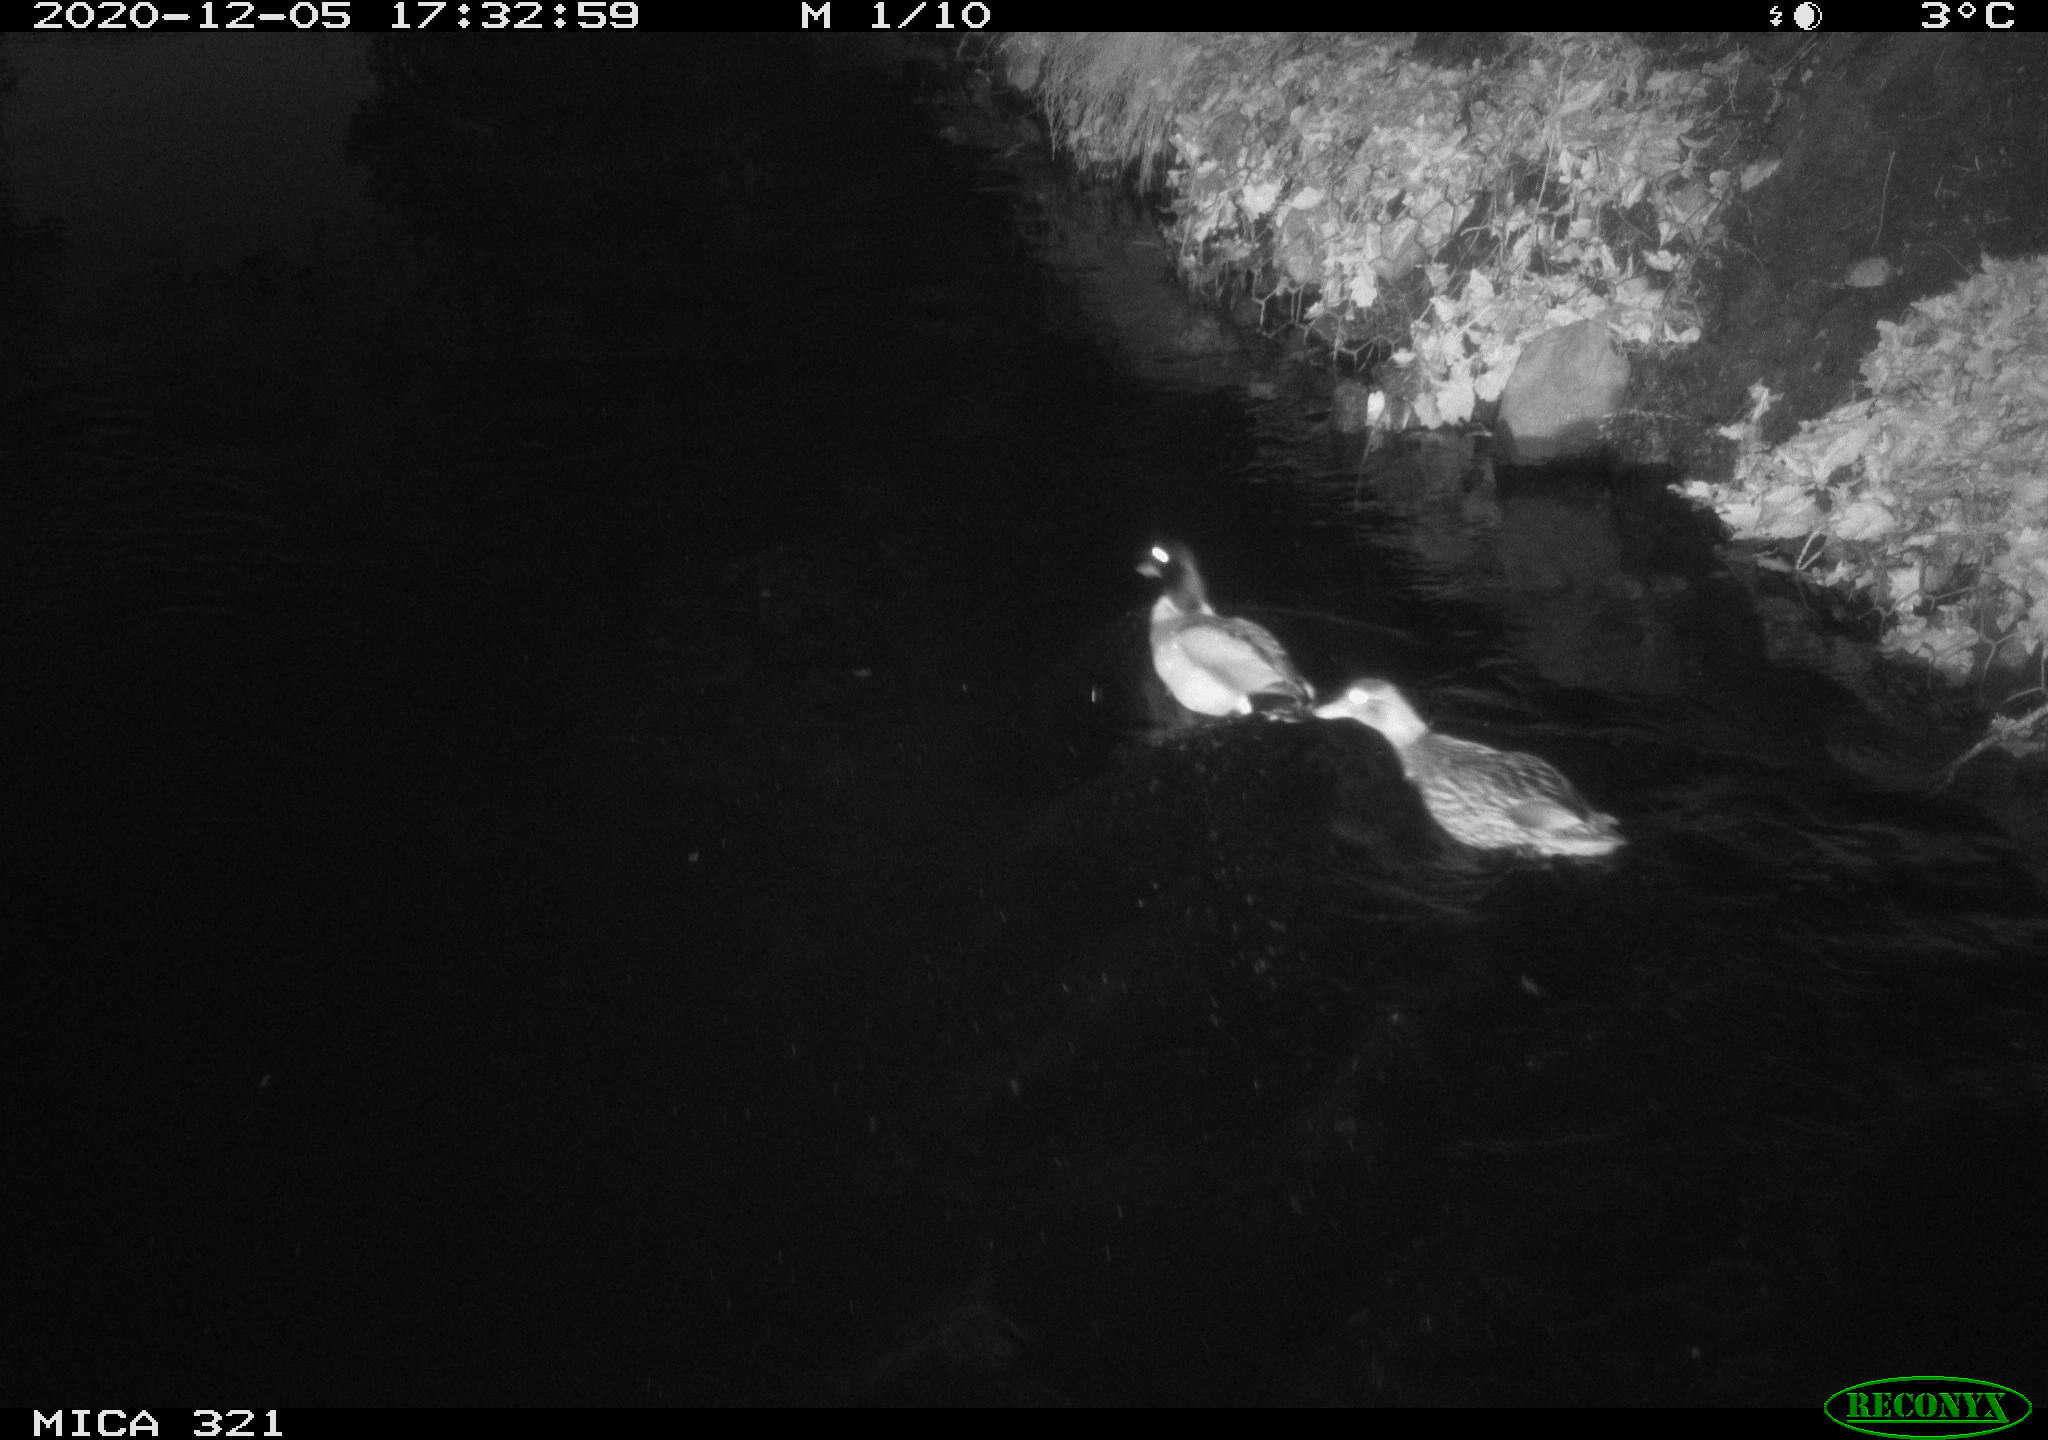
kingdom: Animalia
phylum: Chordata
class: Aves
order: Anseriformes
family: Anatidae
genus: Anas
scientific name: Anas platyrhynchos
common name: Mallard
